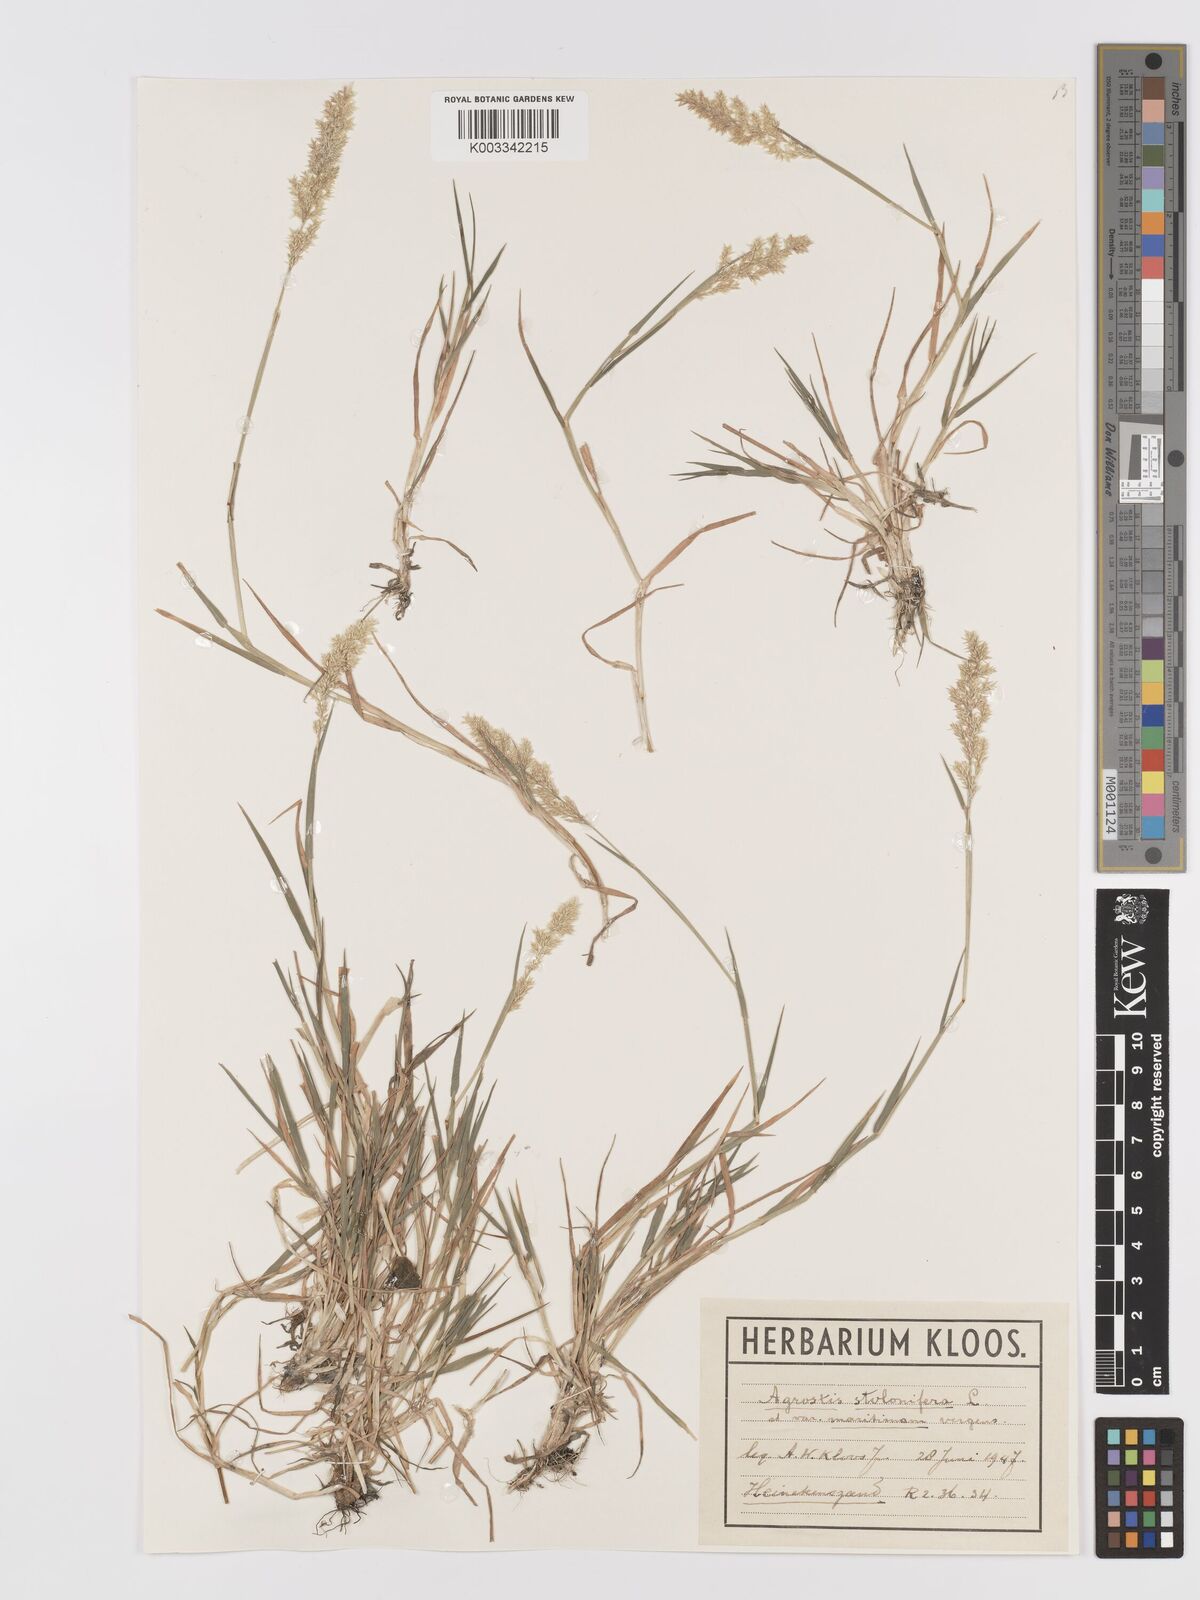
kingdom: Plantae
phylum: Tracheophyta
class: Liliopsida
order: Poales
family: Poaceae
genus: Agrostis
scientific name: Agrostis stolonifera
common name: Creeping bentgrass
